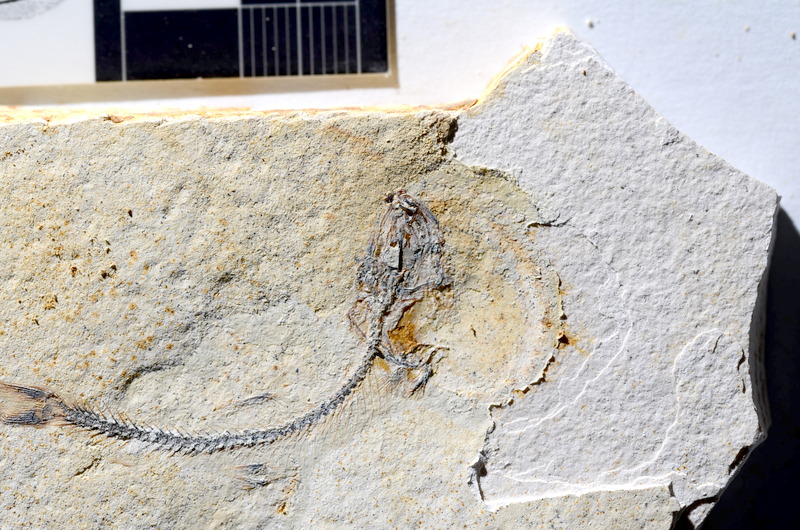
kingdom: Animalia
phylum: Chordata
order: Salmoniformes
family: Orthogonikleithridae
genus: Orthogonikleithrus
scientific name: Orthogonikleithrus hoelli
